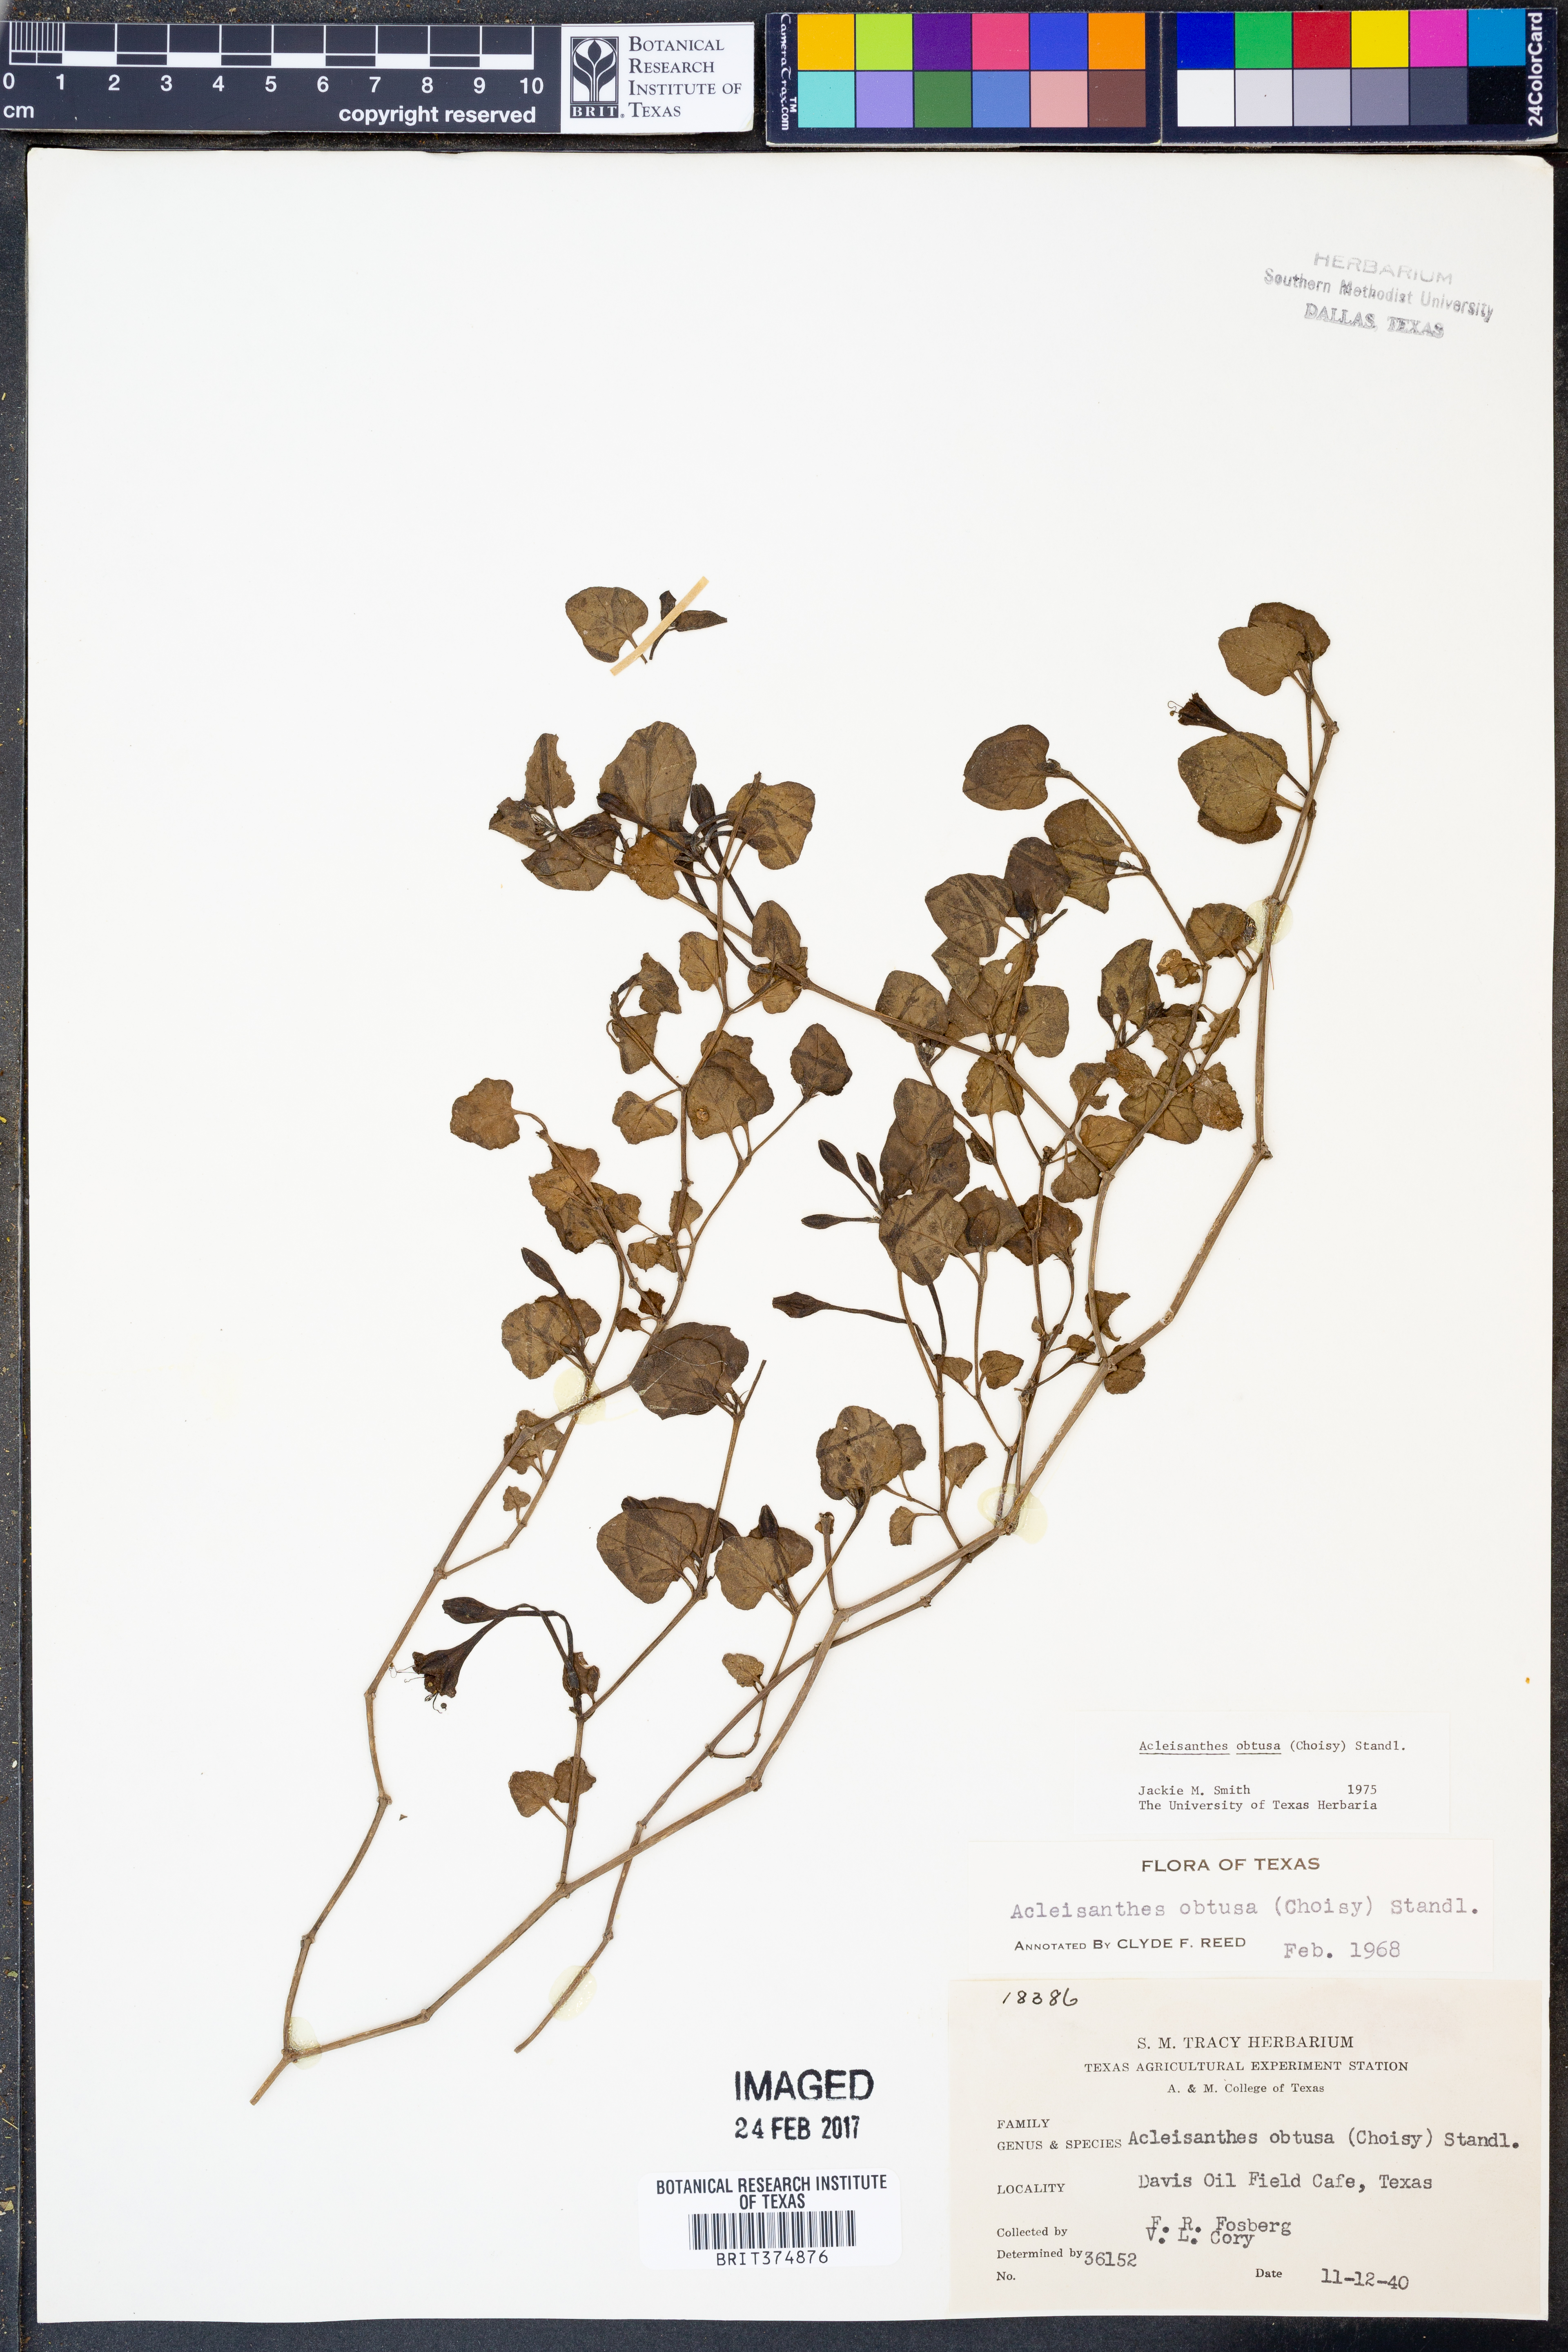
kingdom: Plantae
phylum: Tracheophyta
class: Magnoliopsida
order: Caryophyllales
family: Nyctaginaceae
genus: Acleisanthes
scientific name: Acleisanthes obtusa
